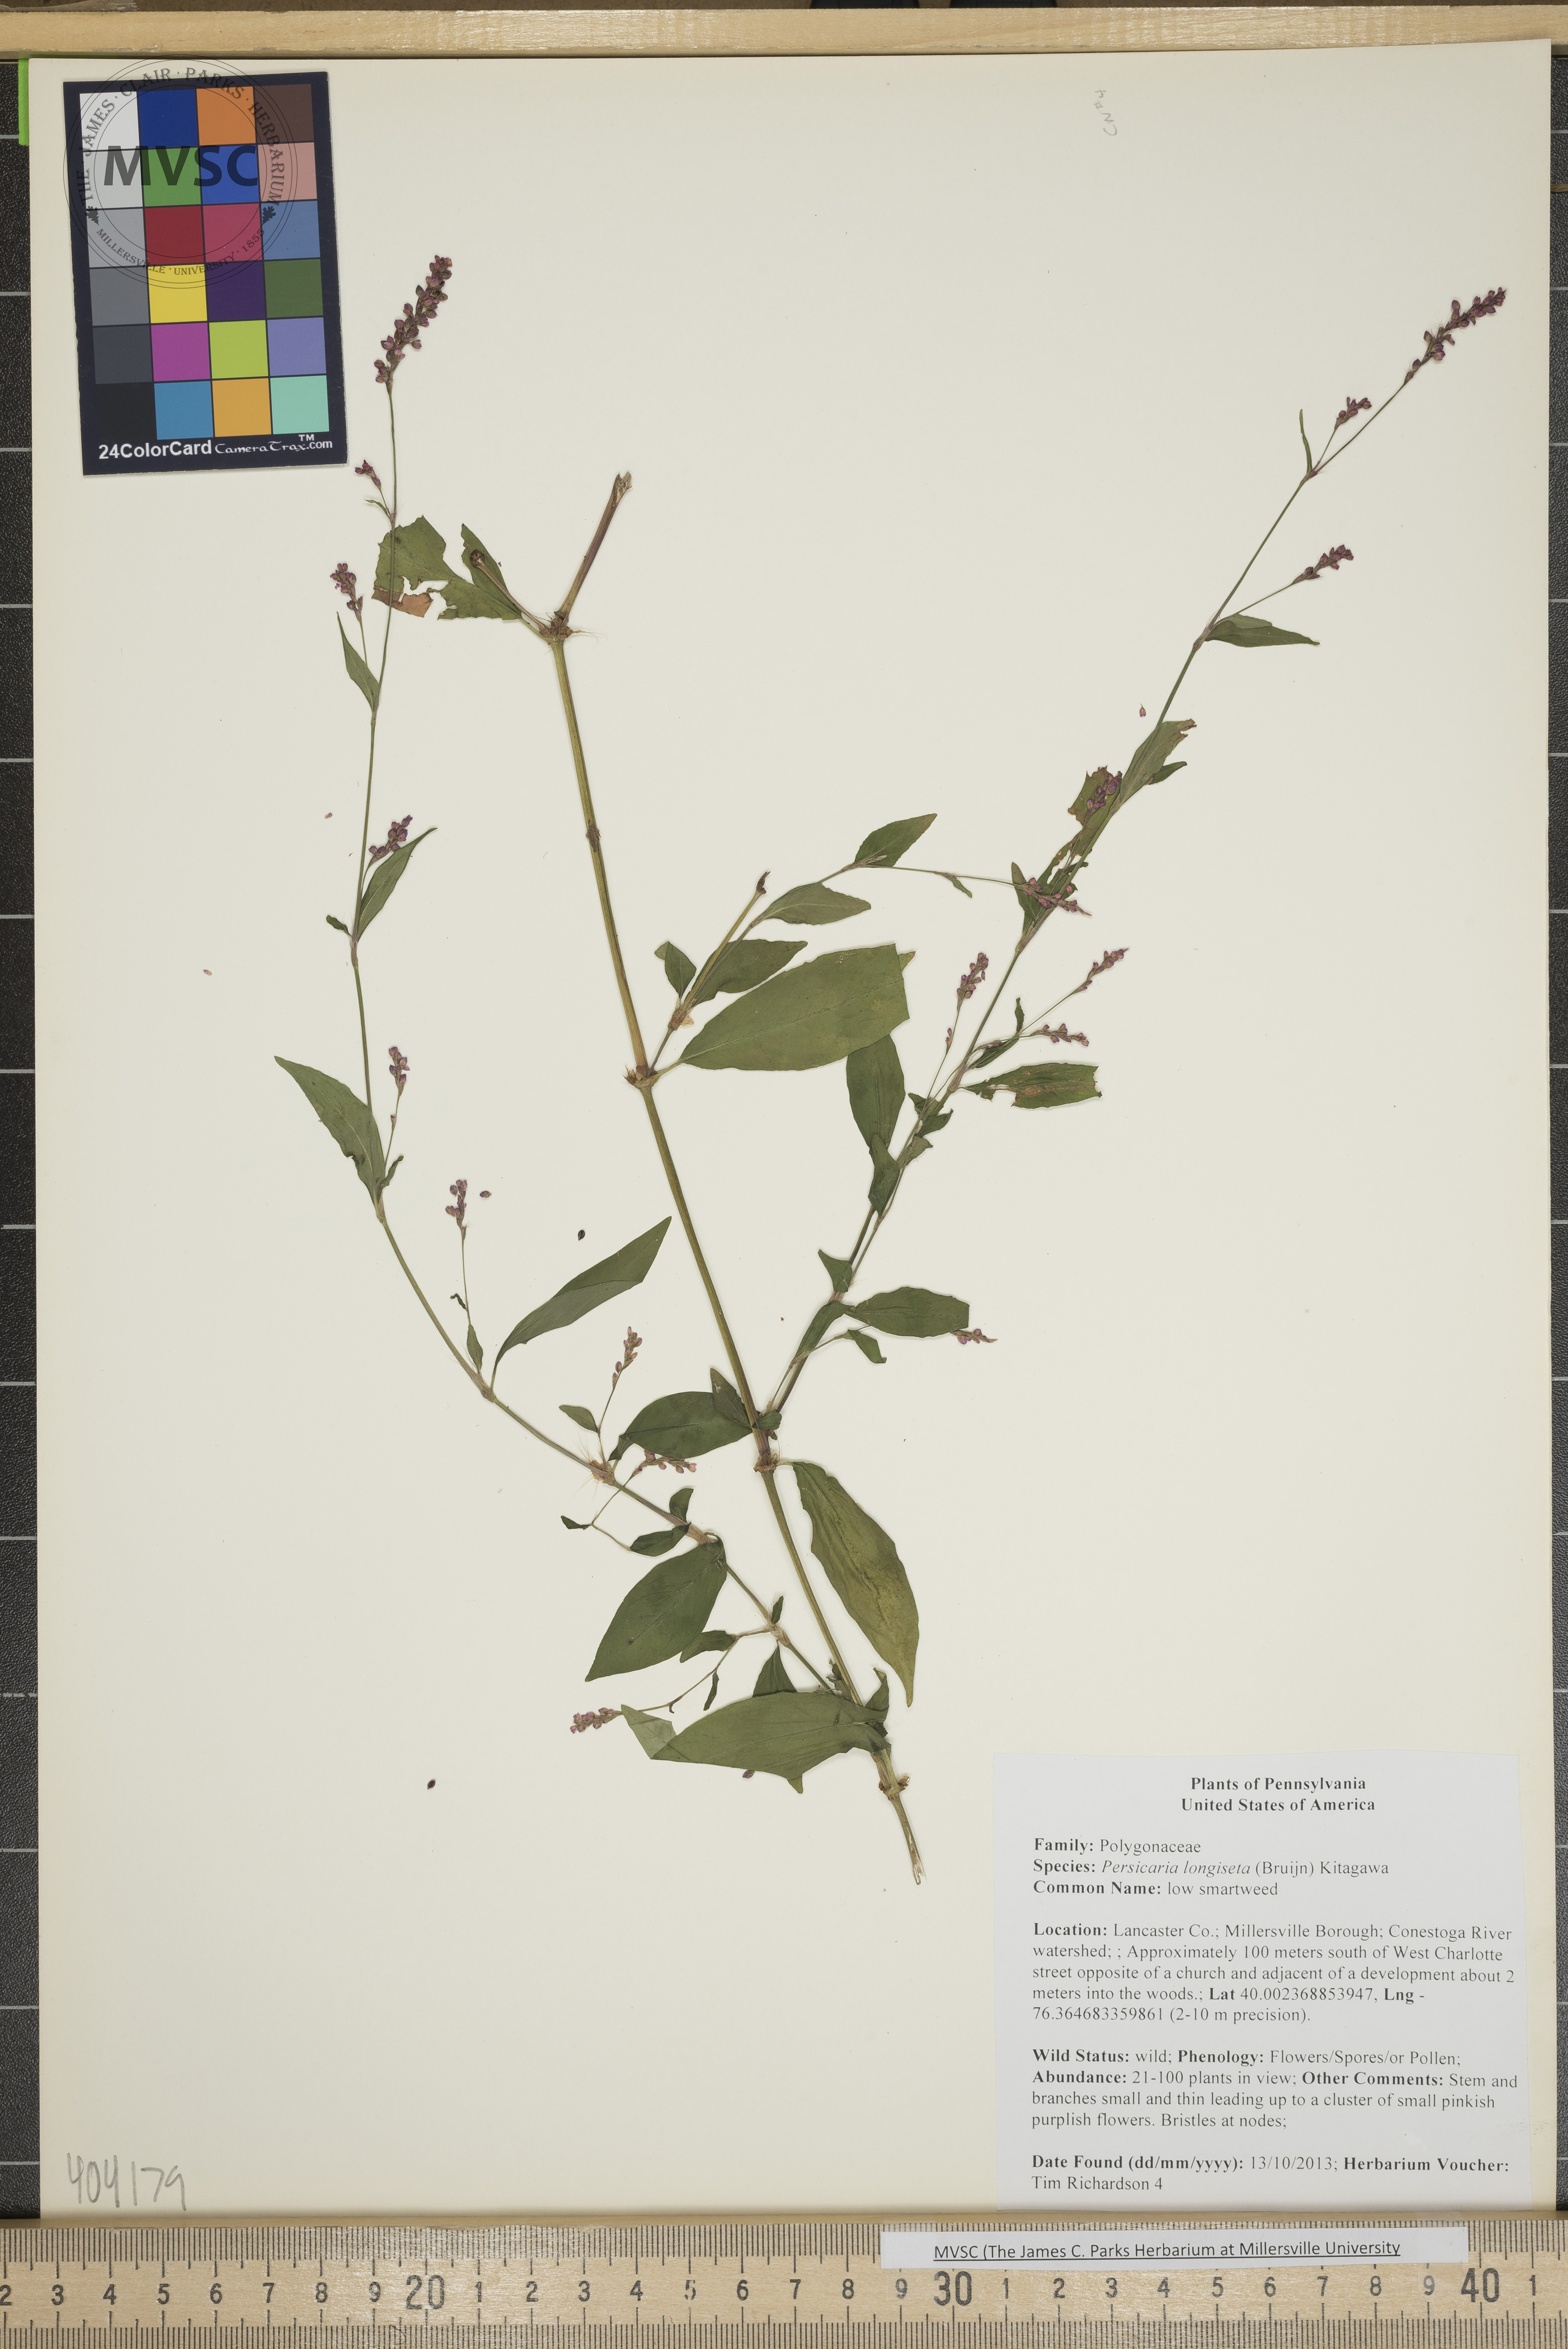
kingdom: Plantae
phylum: Tracheophyta
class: Magnoliopsida
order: Caryophyllales
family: Polygonaceae
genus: Persicaria
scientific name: Persicaria longiseta
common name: low smartweed
